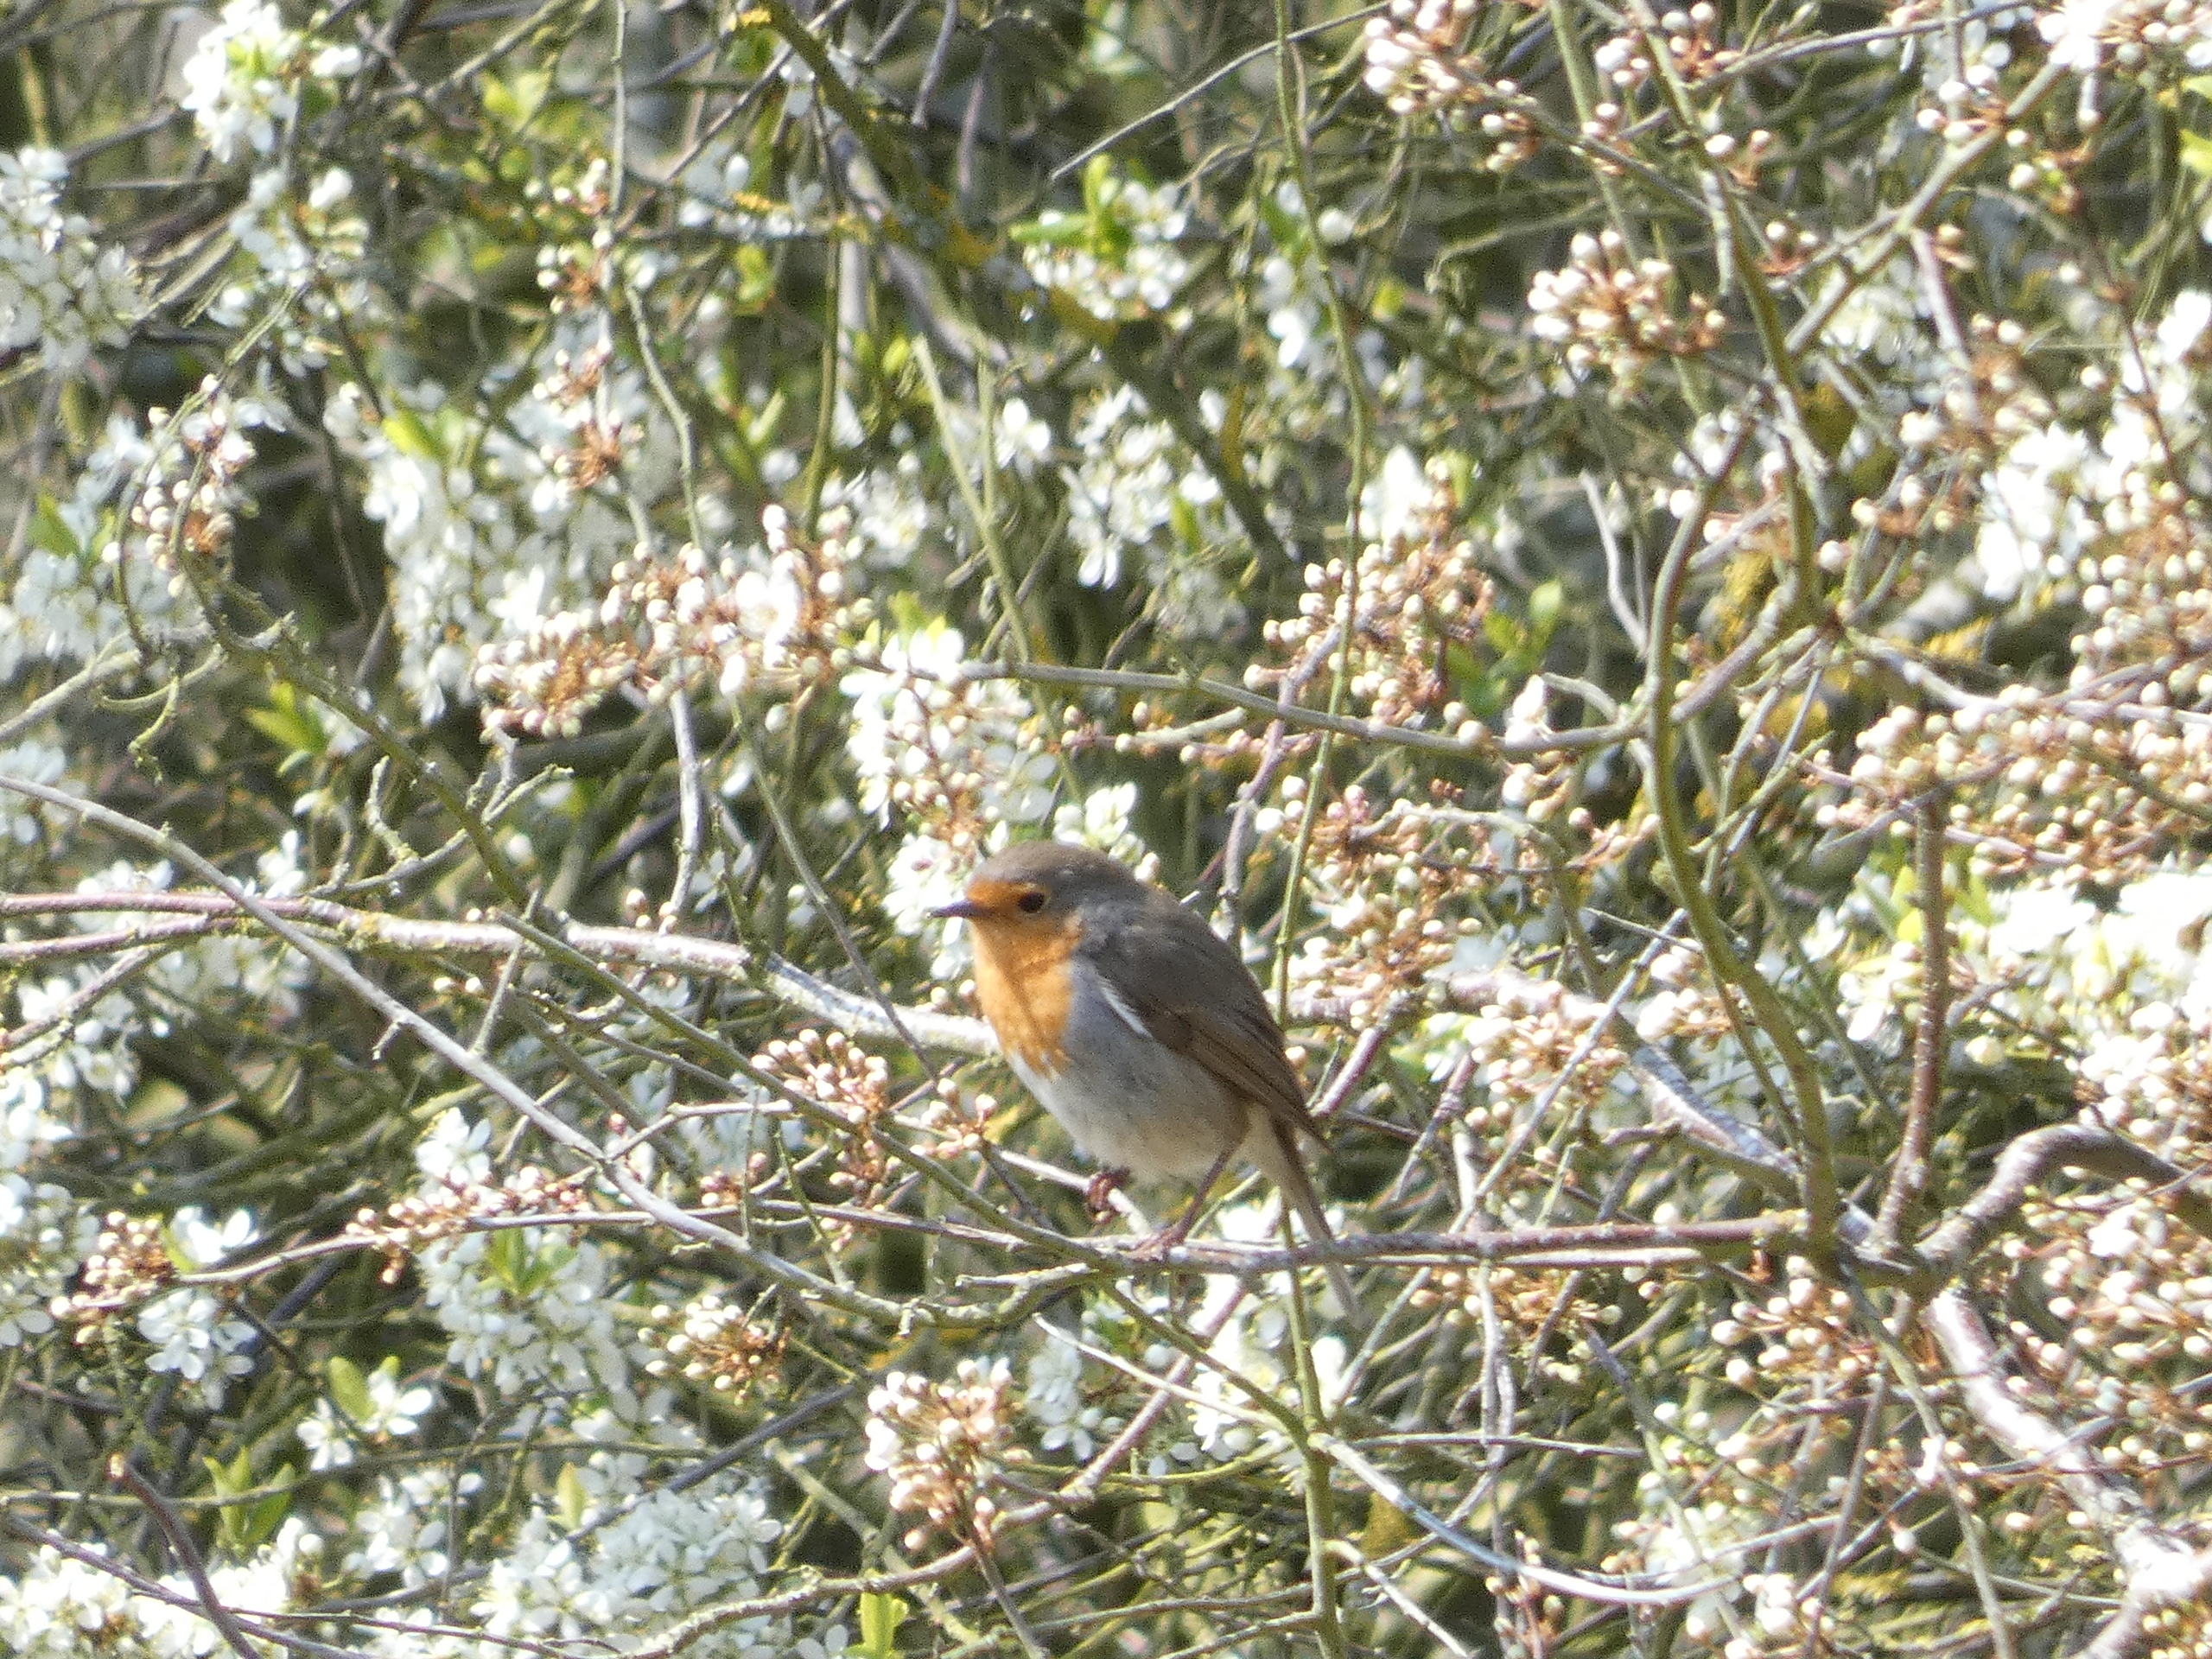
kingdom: Animalia
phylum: Chordata
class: Aves
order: Passeriformes
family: Muscicapidae
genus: Erithacus
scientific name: Erithacus rubecula
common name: Rødhals/rødkælk
